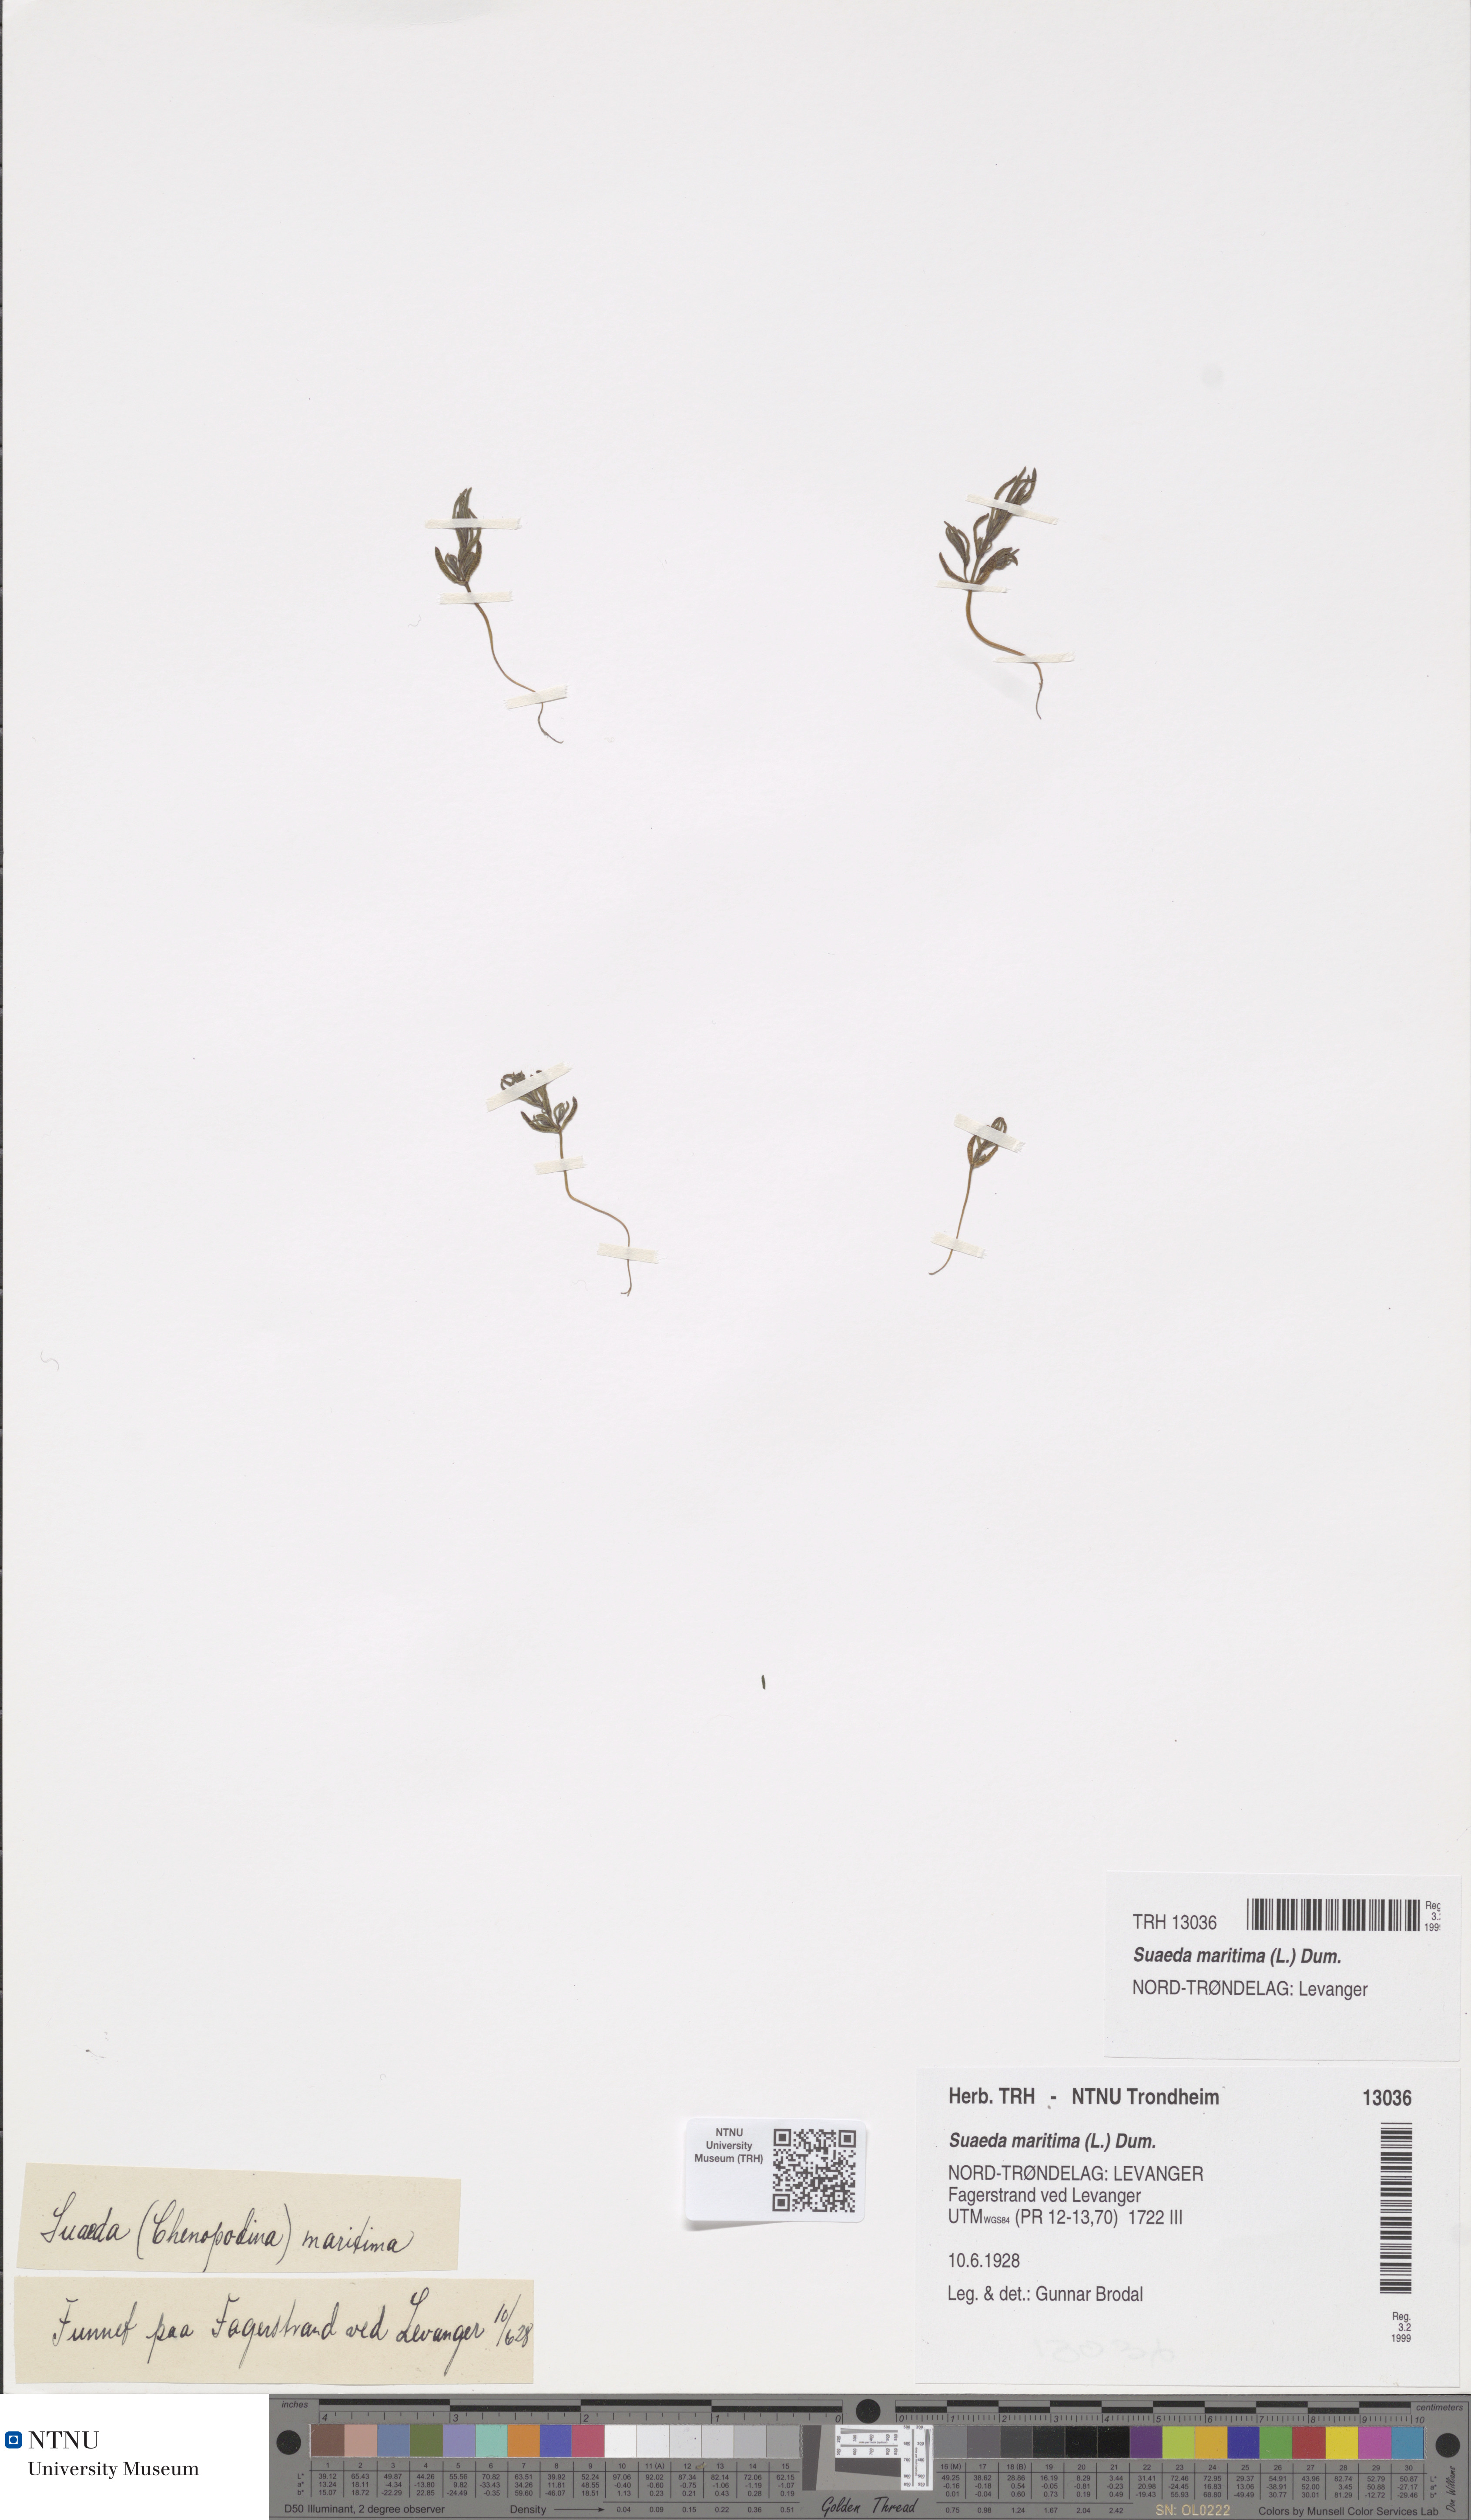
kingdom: Plantae
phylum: Tracheophyta
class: Magnoliopsida
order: Caryophyllales
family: Amaranthaceae
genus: Suaeda
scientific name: Suaeda maritima
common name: Annual sea-blite
